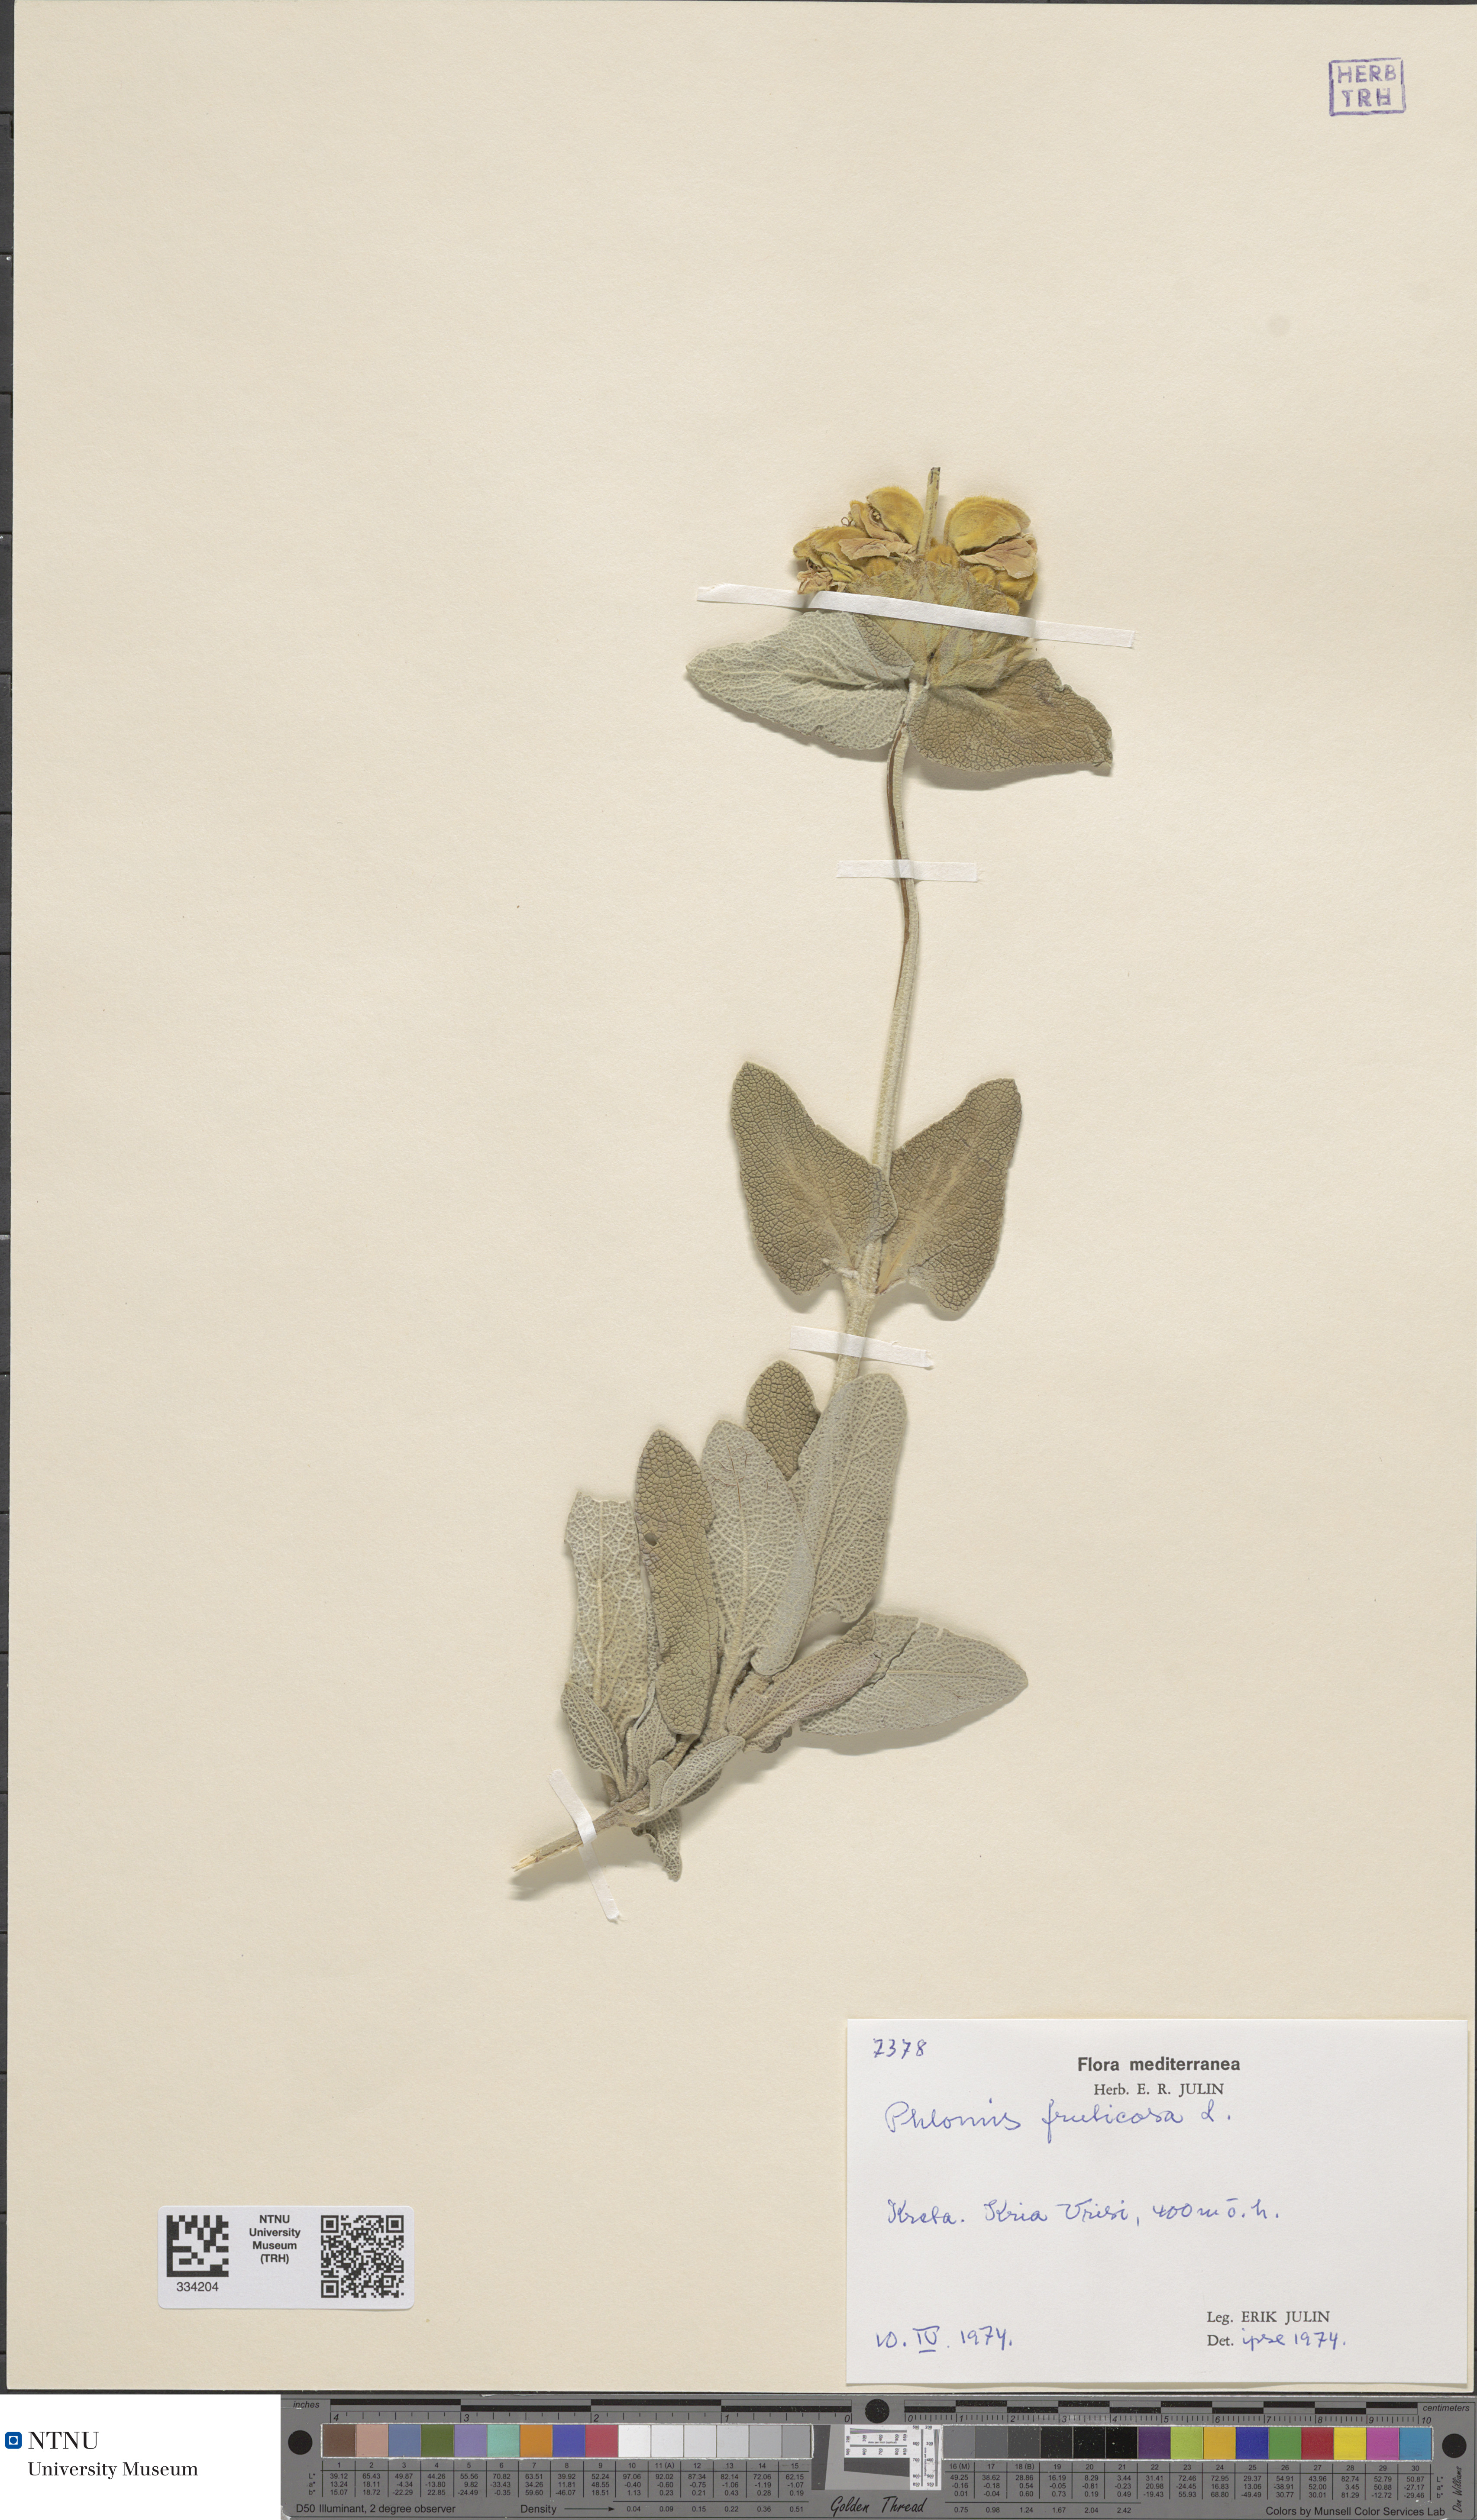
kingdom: Plantae
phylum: Tracheophyta
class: Magnoliopsida
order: Lamiales
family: Lamiaceae
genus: Phlomis
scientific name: Phlomis fruticosa
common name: Jerusalem sage
